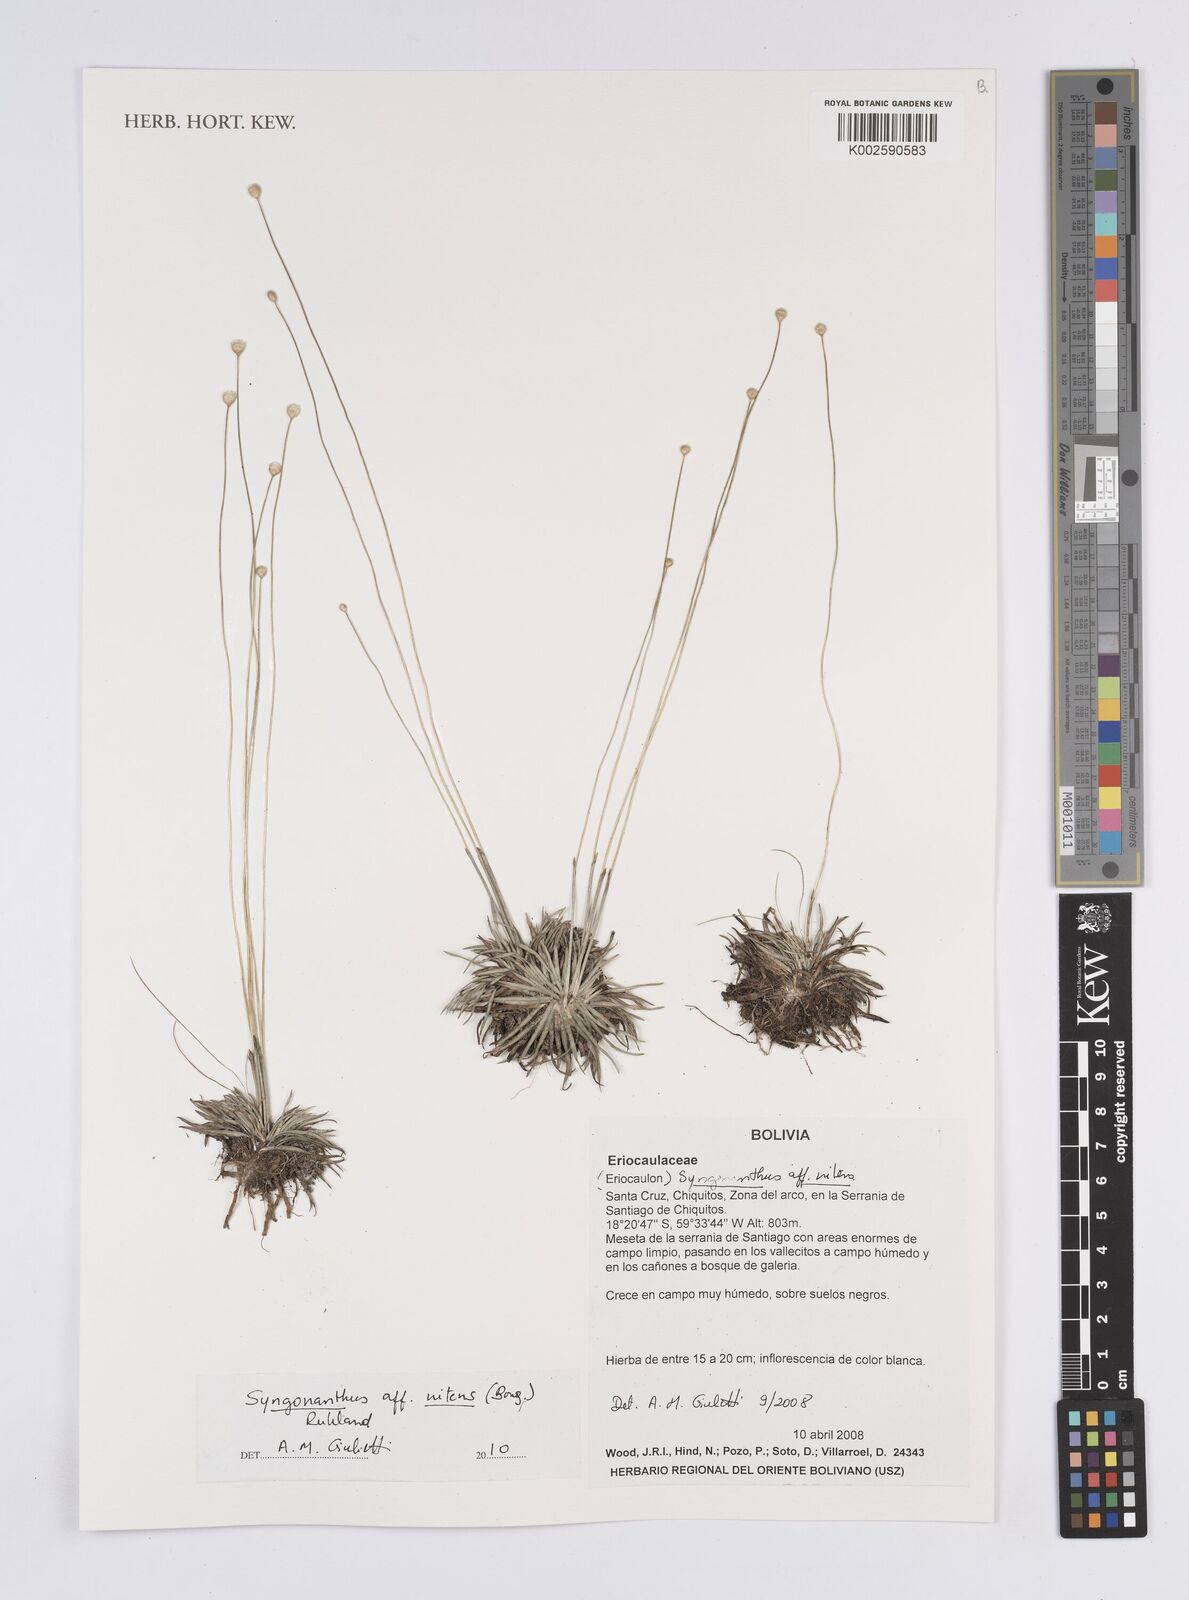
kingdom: Plantae
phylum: Tracheophyta
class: Liliopsida
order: Poales
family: Eriocaulaceae
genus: Syngonanthus
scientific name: Syngonanthus nitens
